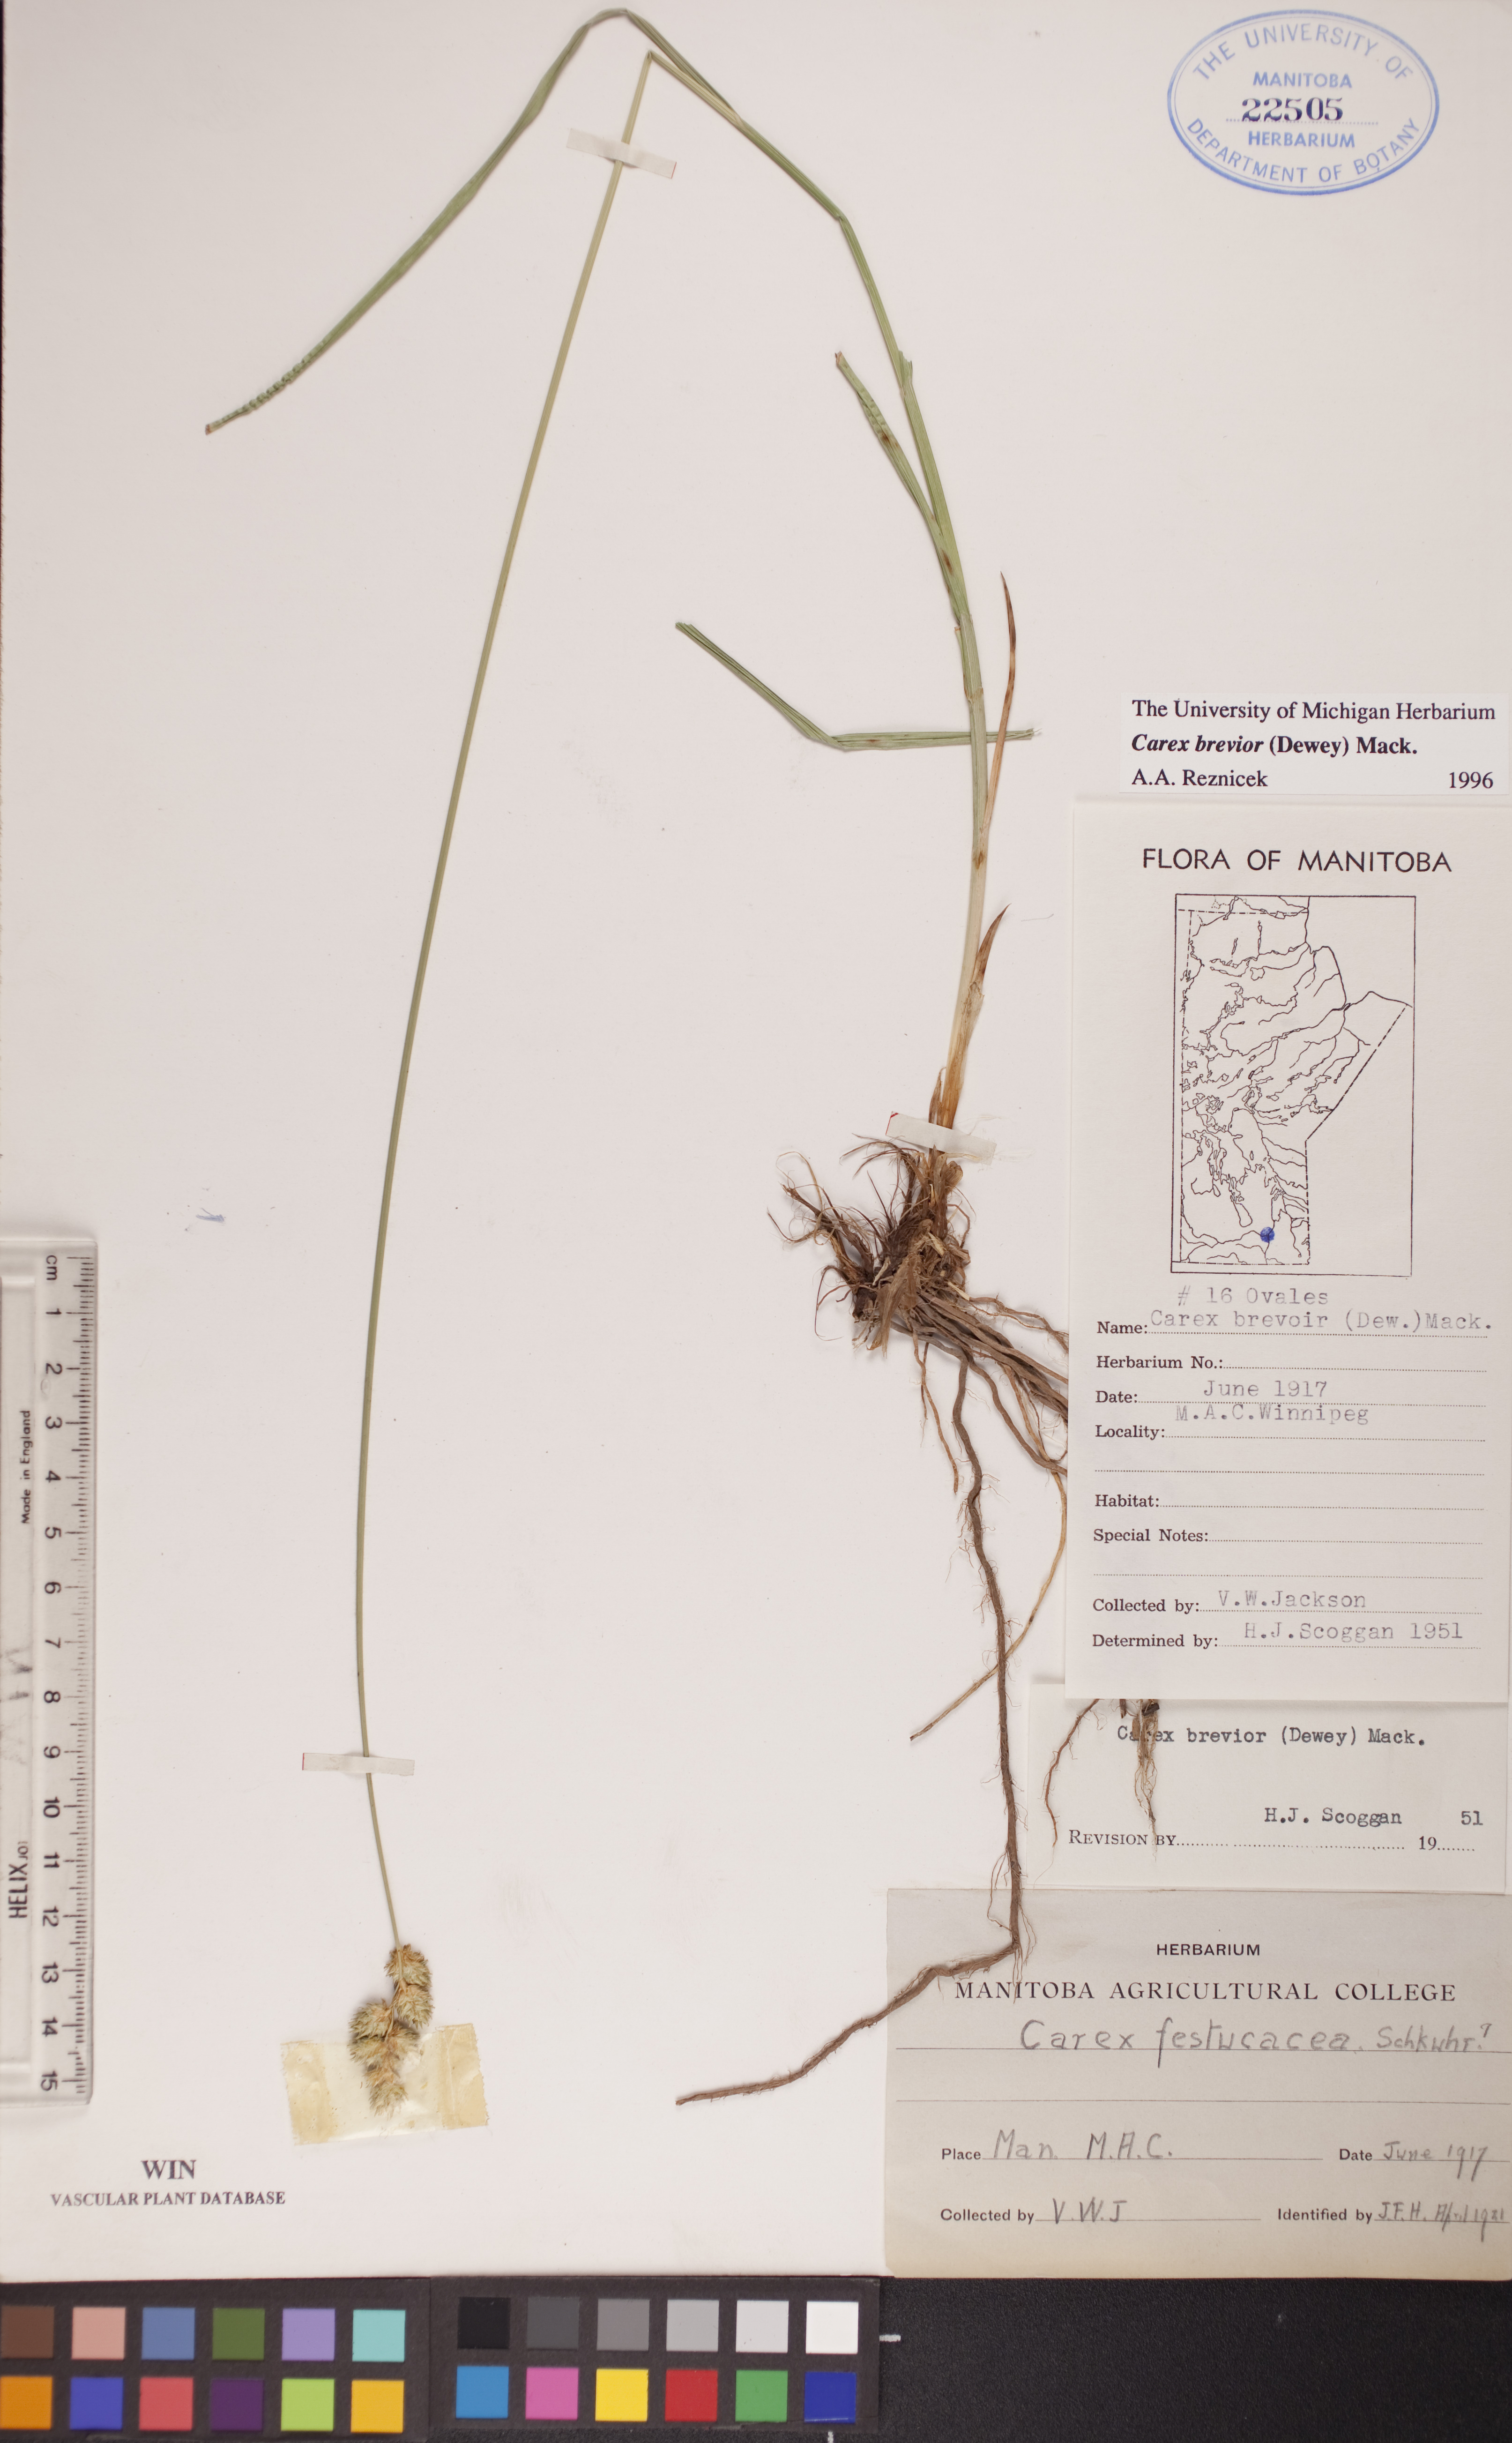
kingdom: Plantae
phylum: Tracheophyta
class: Liliopsida
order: Poales
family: Cyperaceae
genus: Carex
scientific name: Carex brevior
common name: Brevior sedge
